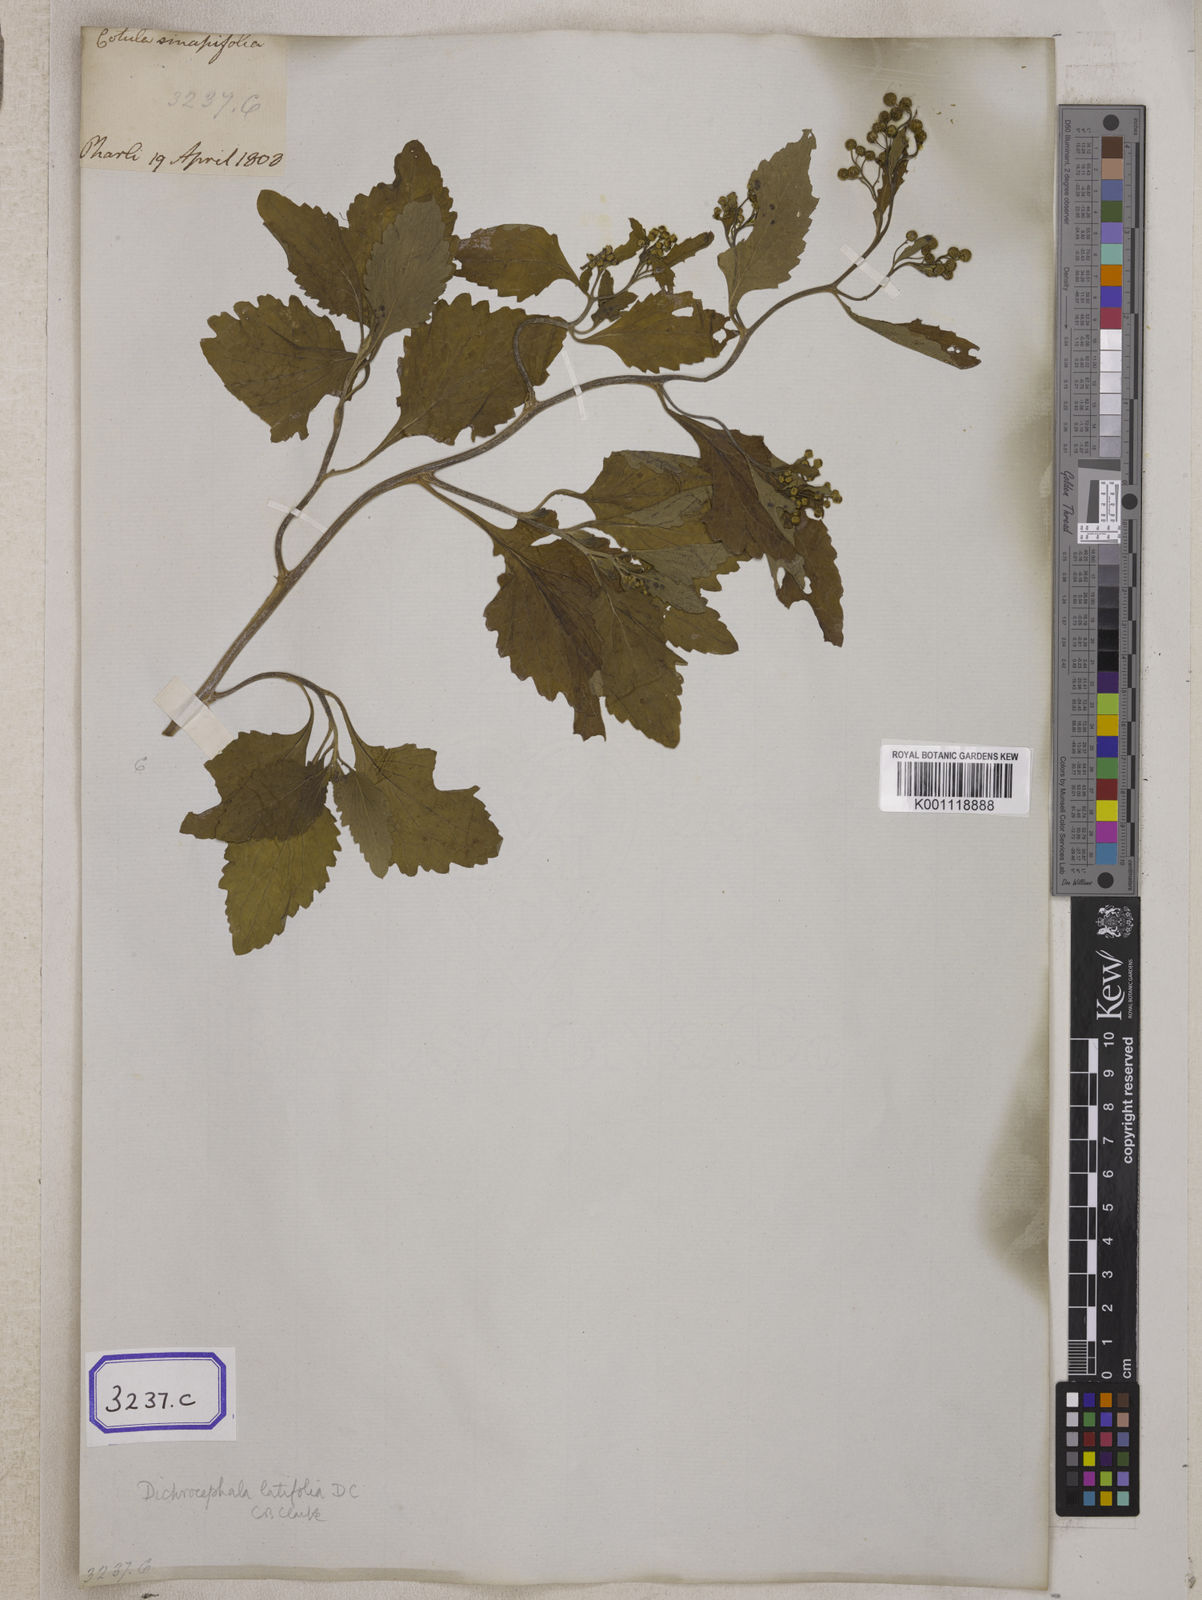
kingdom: Plantae
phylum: Tracheophyta
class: Magnoliopsida
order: Asterales
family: Asteraceae
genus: Thespis
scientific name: Thespis divaricata
